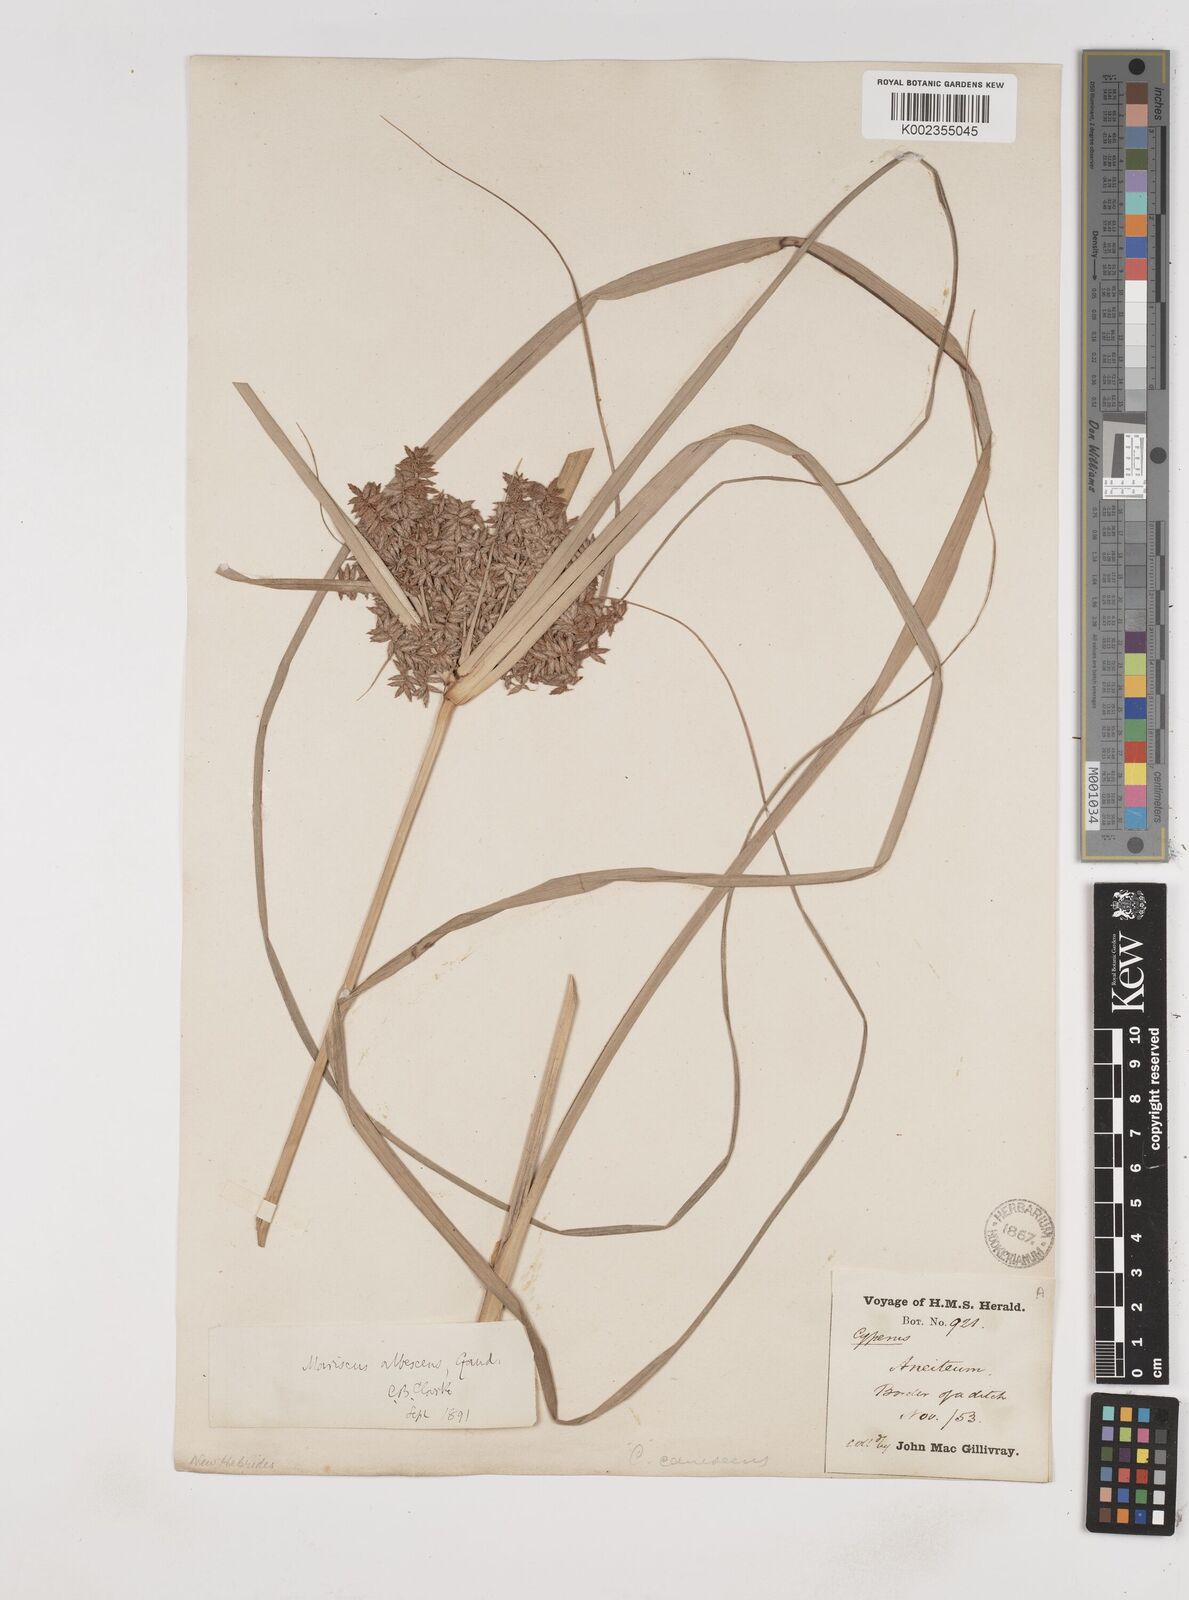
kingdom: Plantae
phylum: Tracheophyta
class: Liliopsida
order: Poales
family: Cyperaceae
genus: Cyperus
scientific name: Cyperus javanicus
